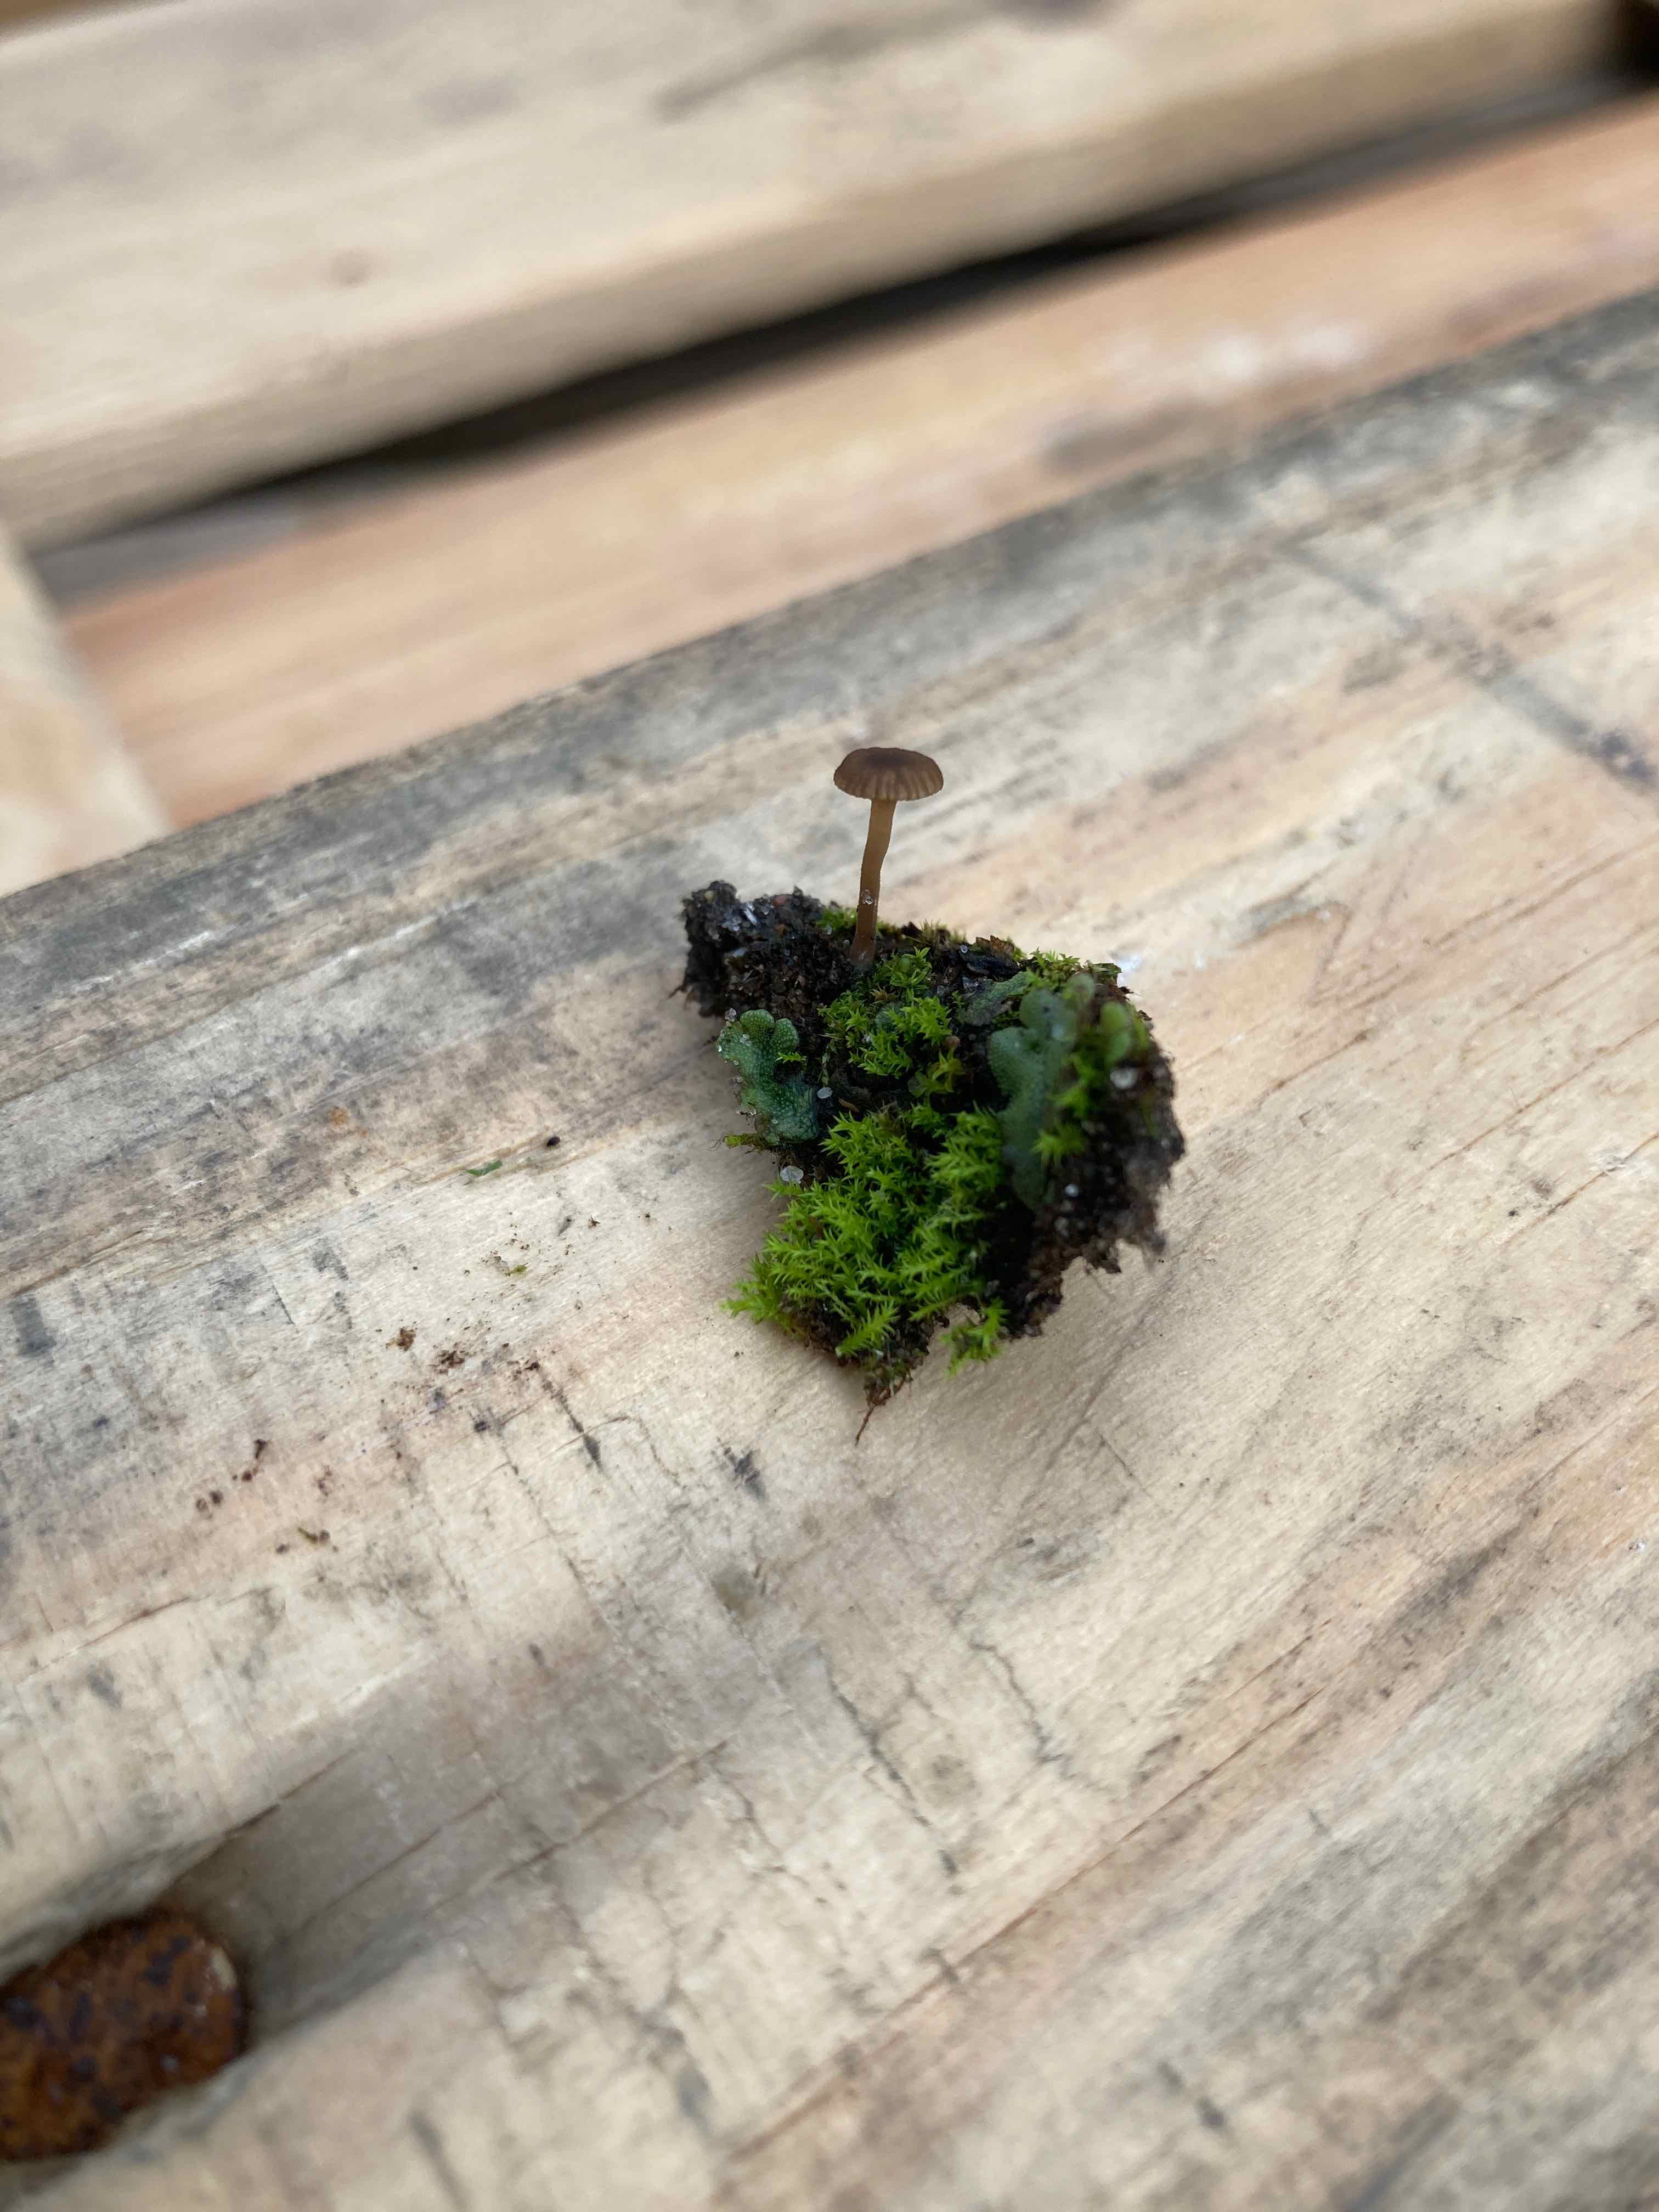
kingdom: Fungi
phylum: Basidiomycota
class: Agaricomycetes
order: Agaricales
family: Hygrophoraceae
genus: Arrhenia
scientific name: Arrhenia
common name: fontænehat
